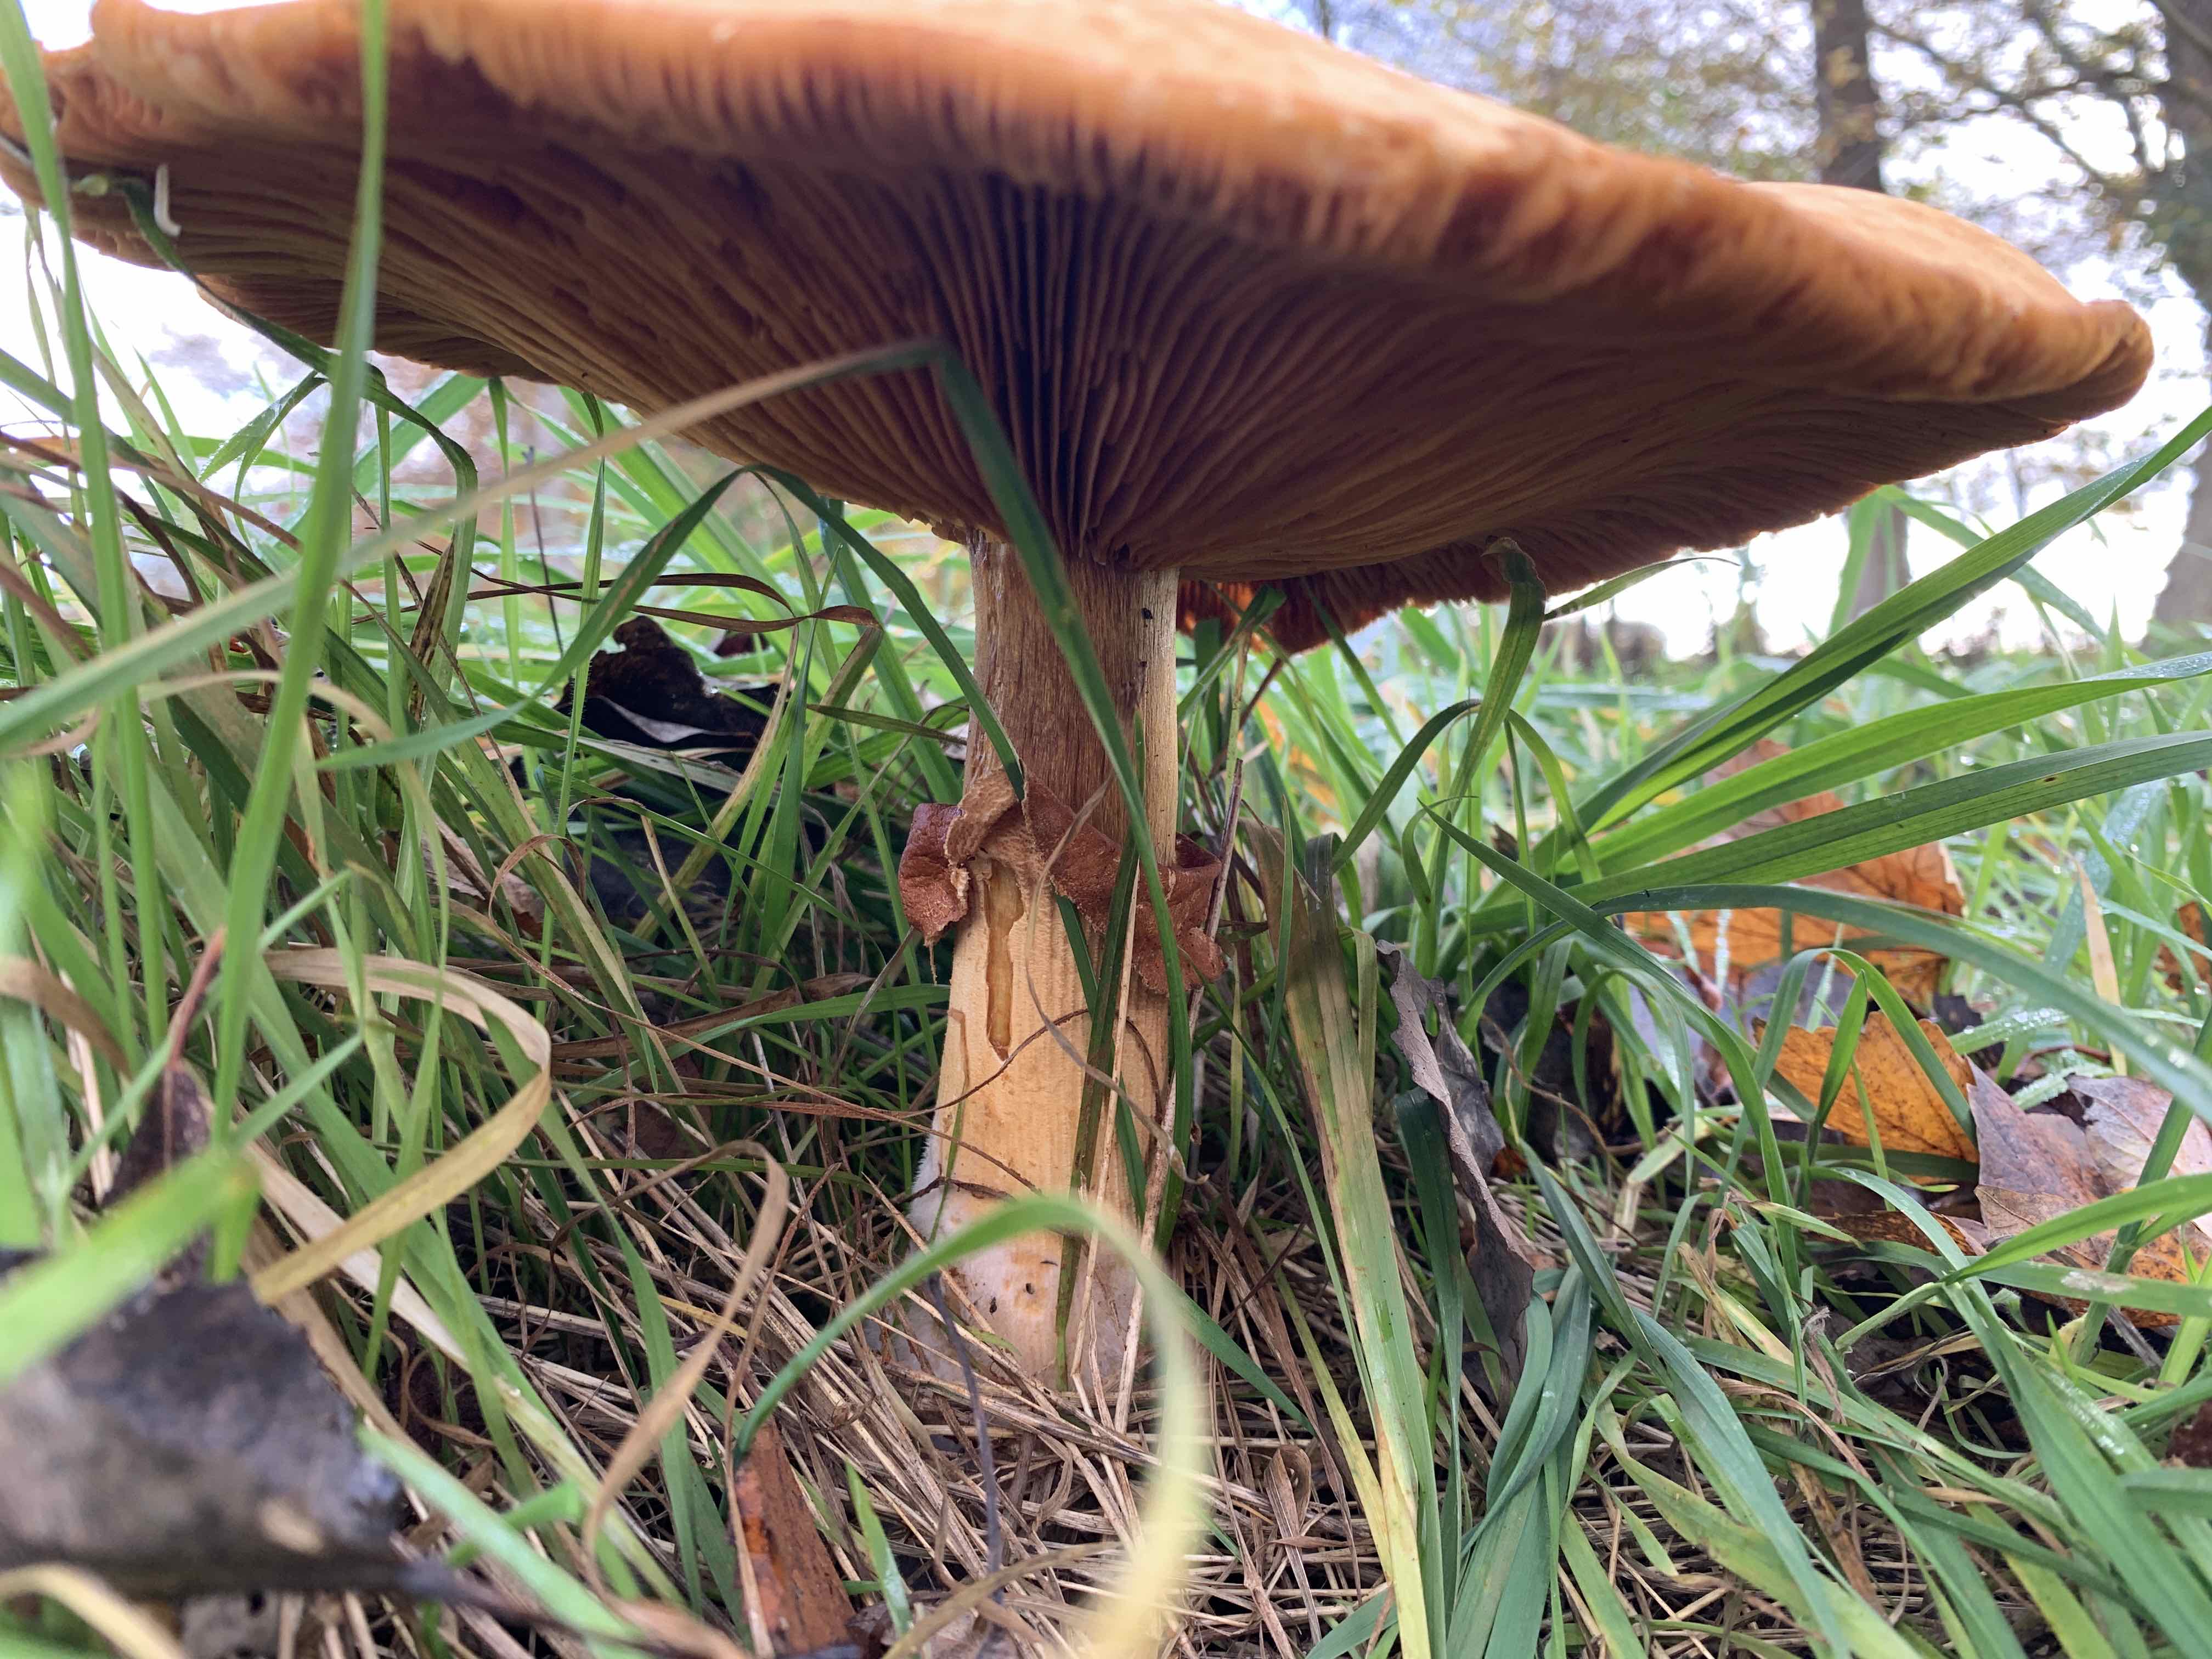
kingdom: Fungi
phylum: Basidiomycota
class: Agaricomycetes
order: Agaricales
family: Tricholomataceae
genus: Phaeolepiota
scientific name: Phaeolepiota aurea
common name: gyldenhat
